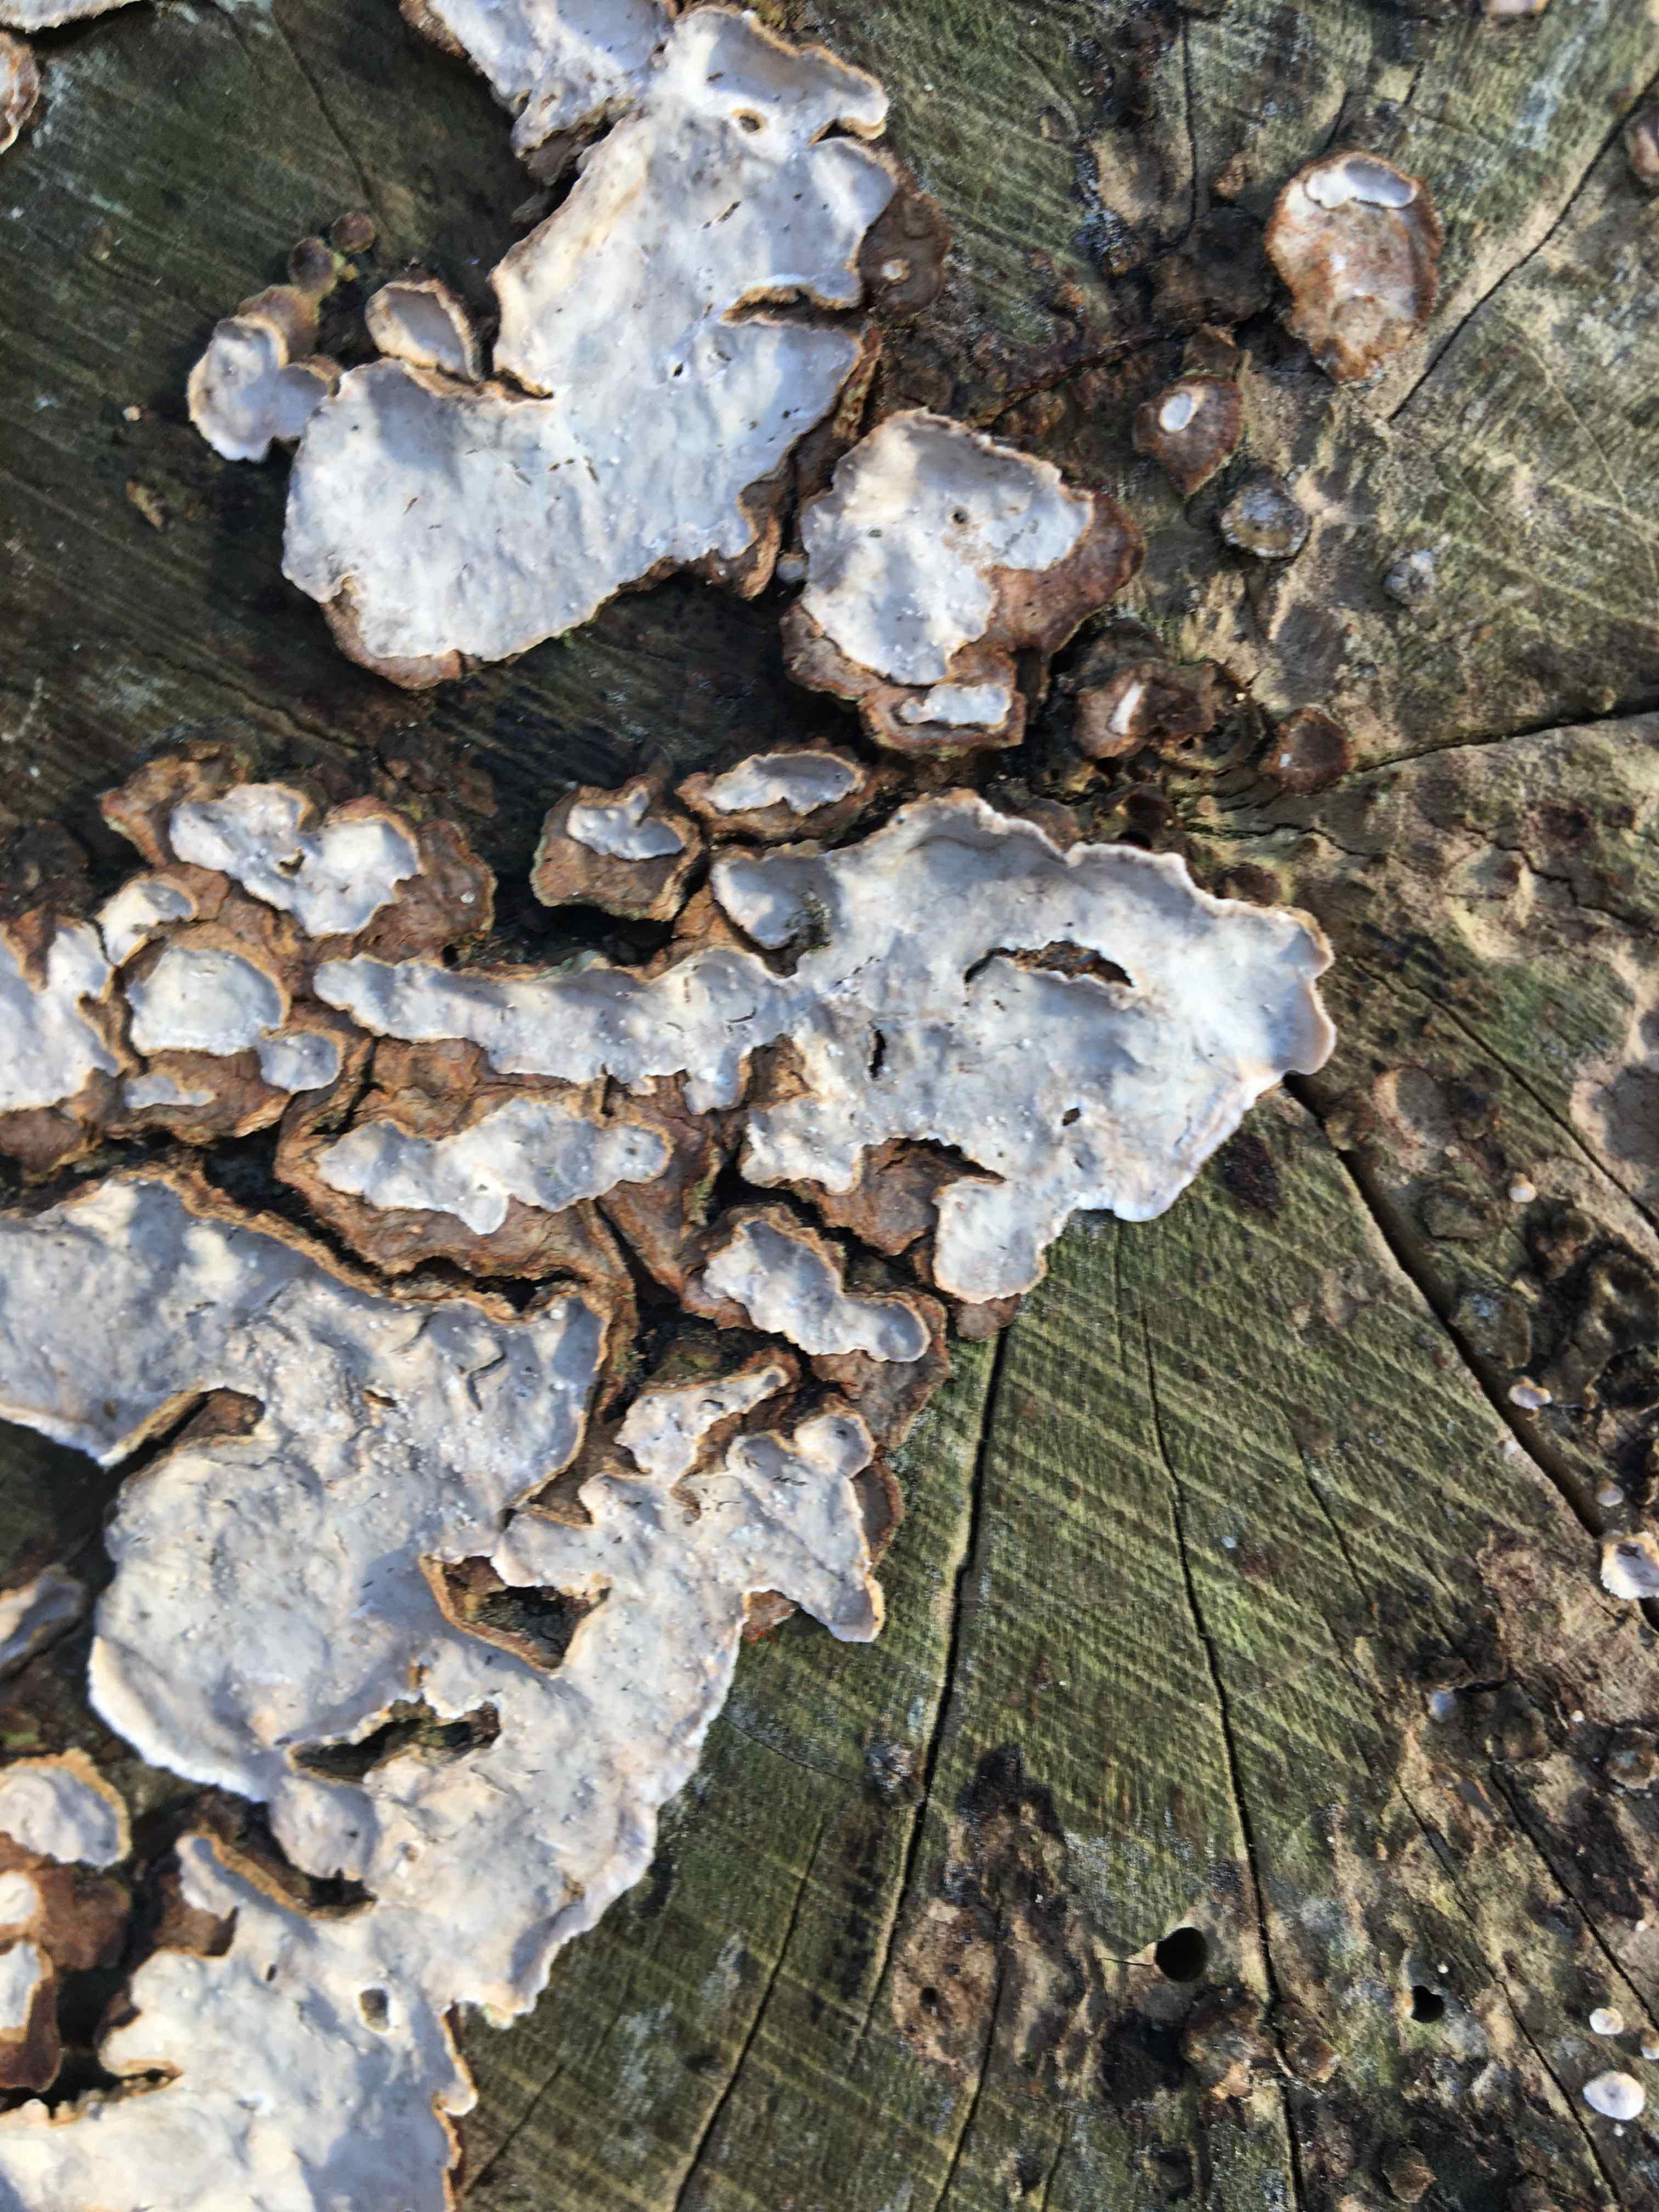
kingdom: Fungi
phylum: Basidiomycota
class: Agaricomycetes
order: Russulales
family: Stereaceae
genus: Stereum
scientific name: Stereum rugosum
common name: rynket lædersvamp
